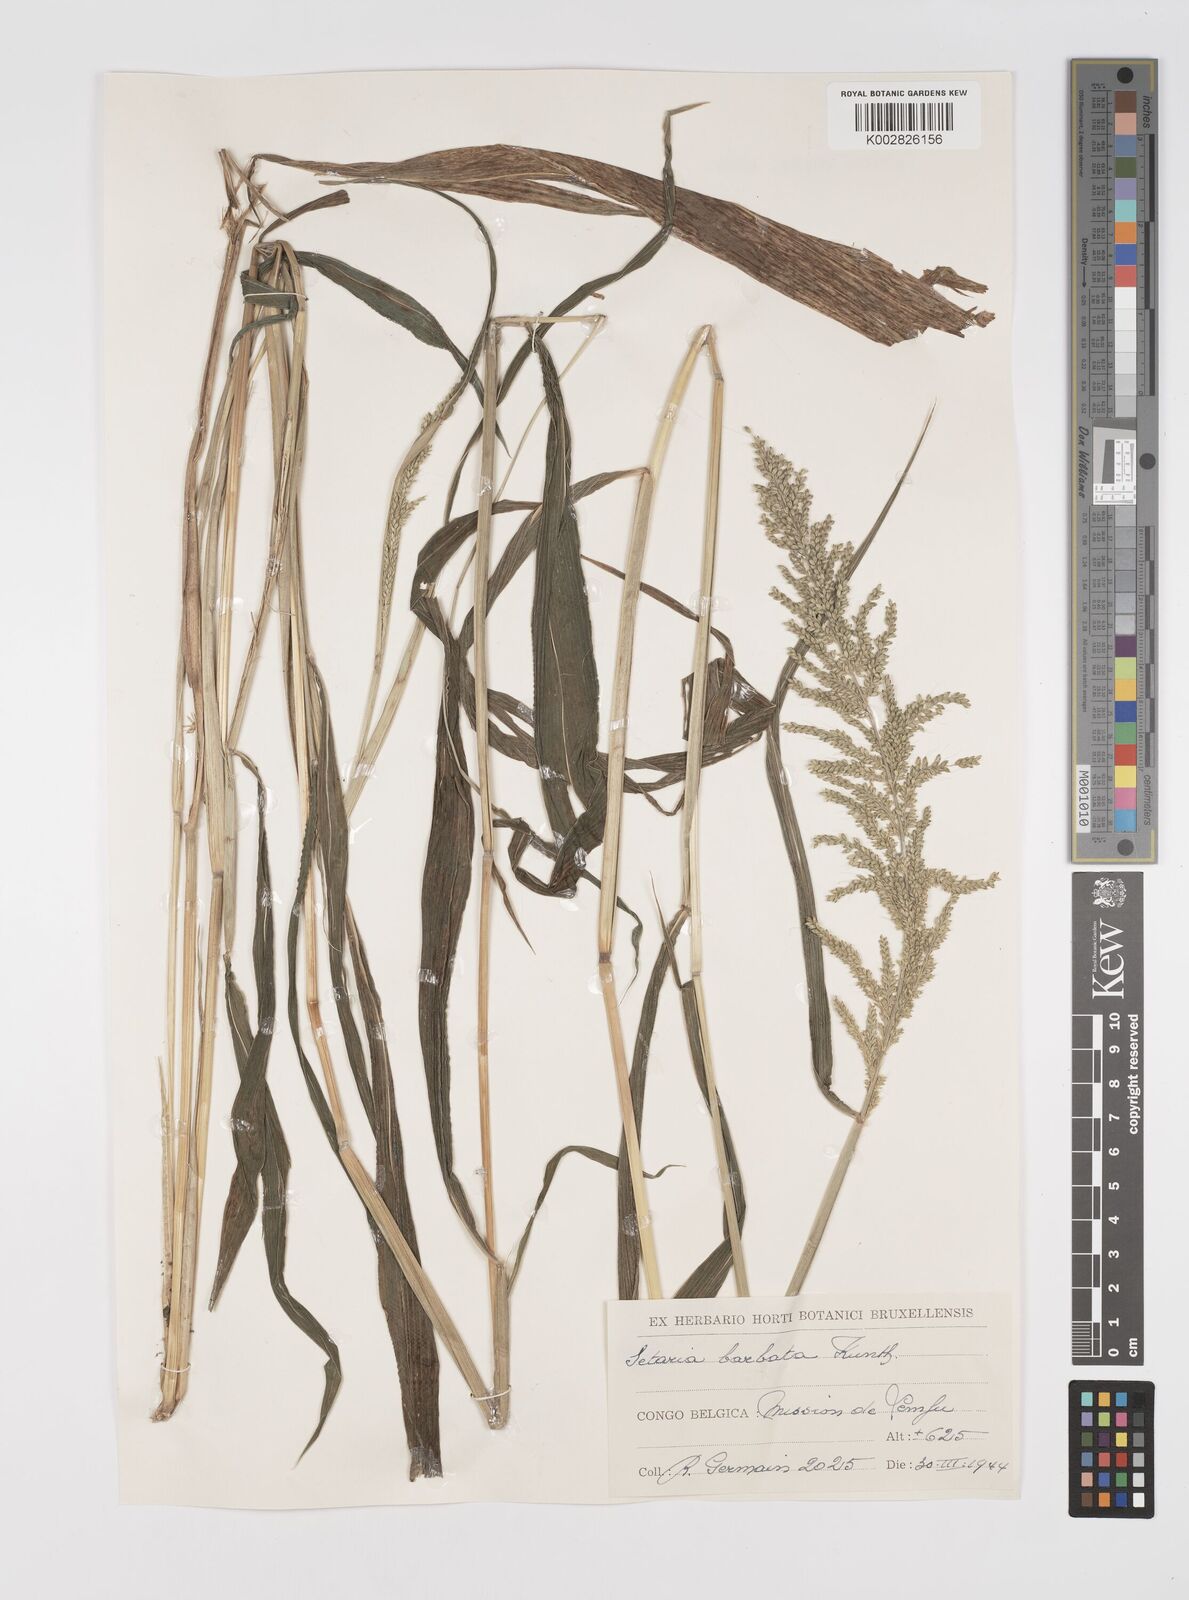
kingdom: Plantae
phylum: Tracheophyta
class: Liliopsida
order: Poales
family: Poaceae
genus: Setaria
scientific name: Setaria barbata
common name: East indian bristlegrass
